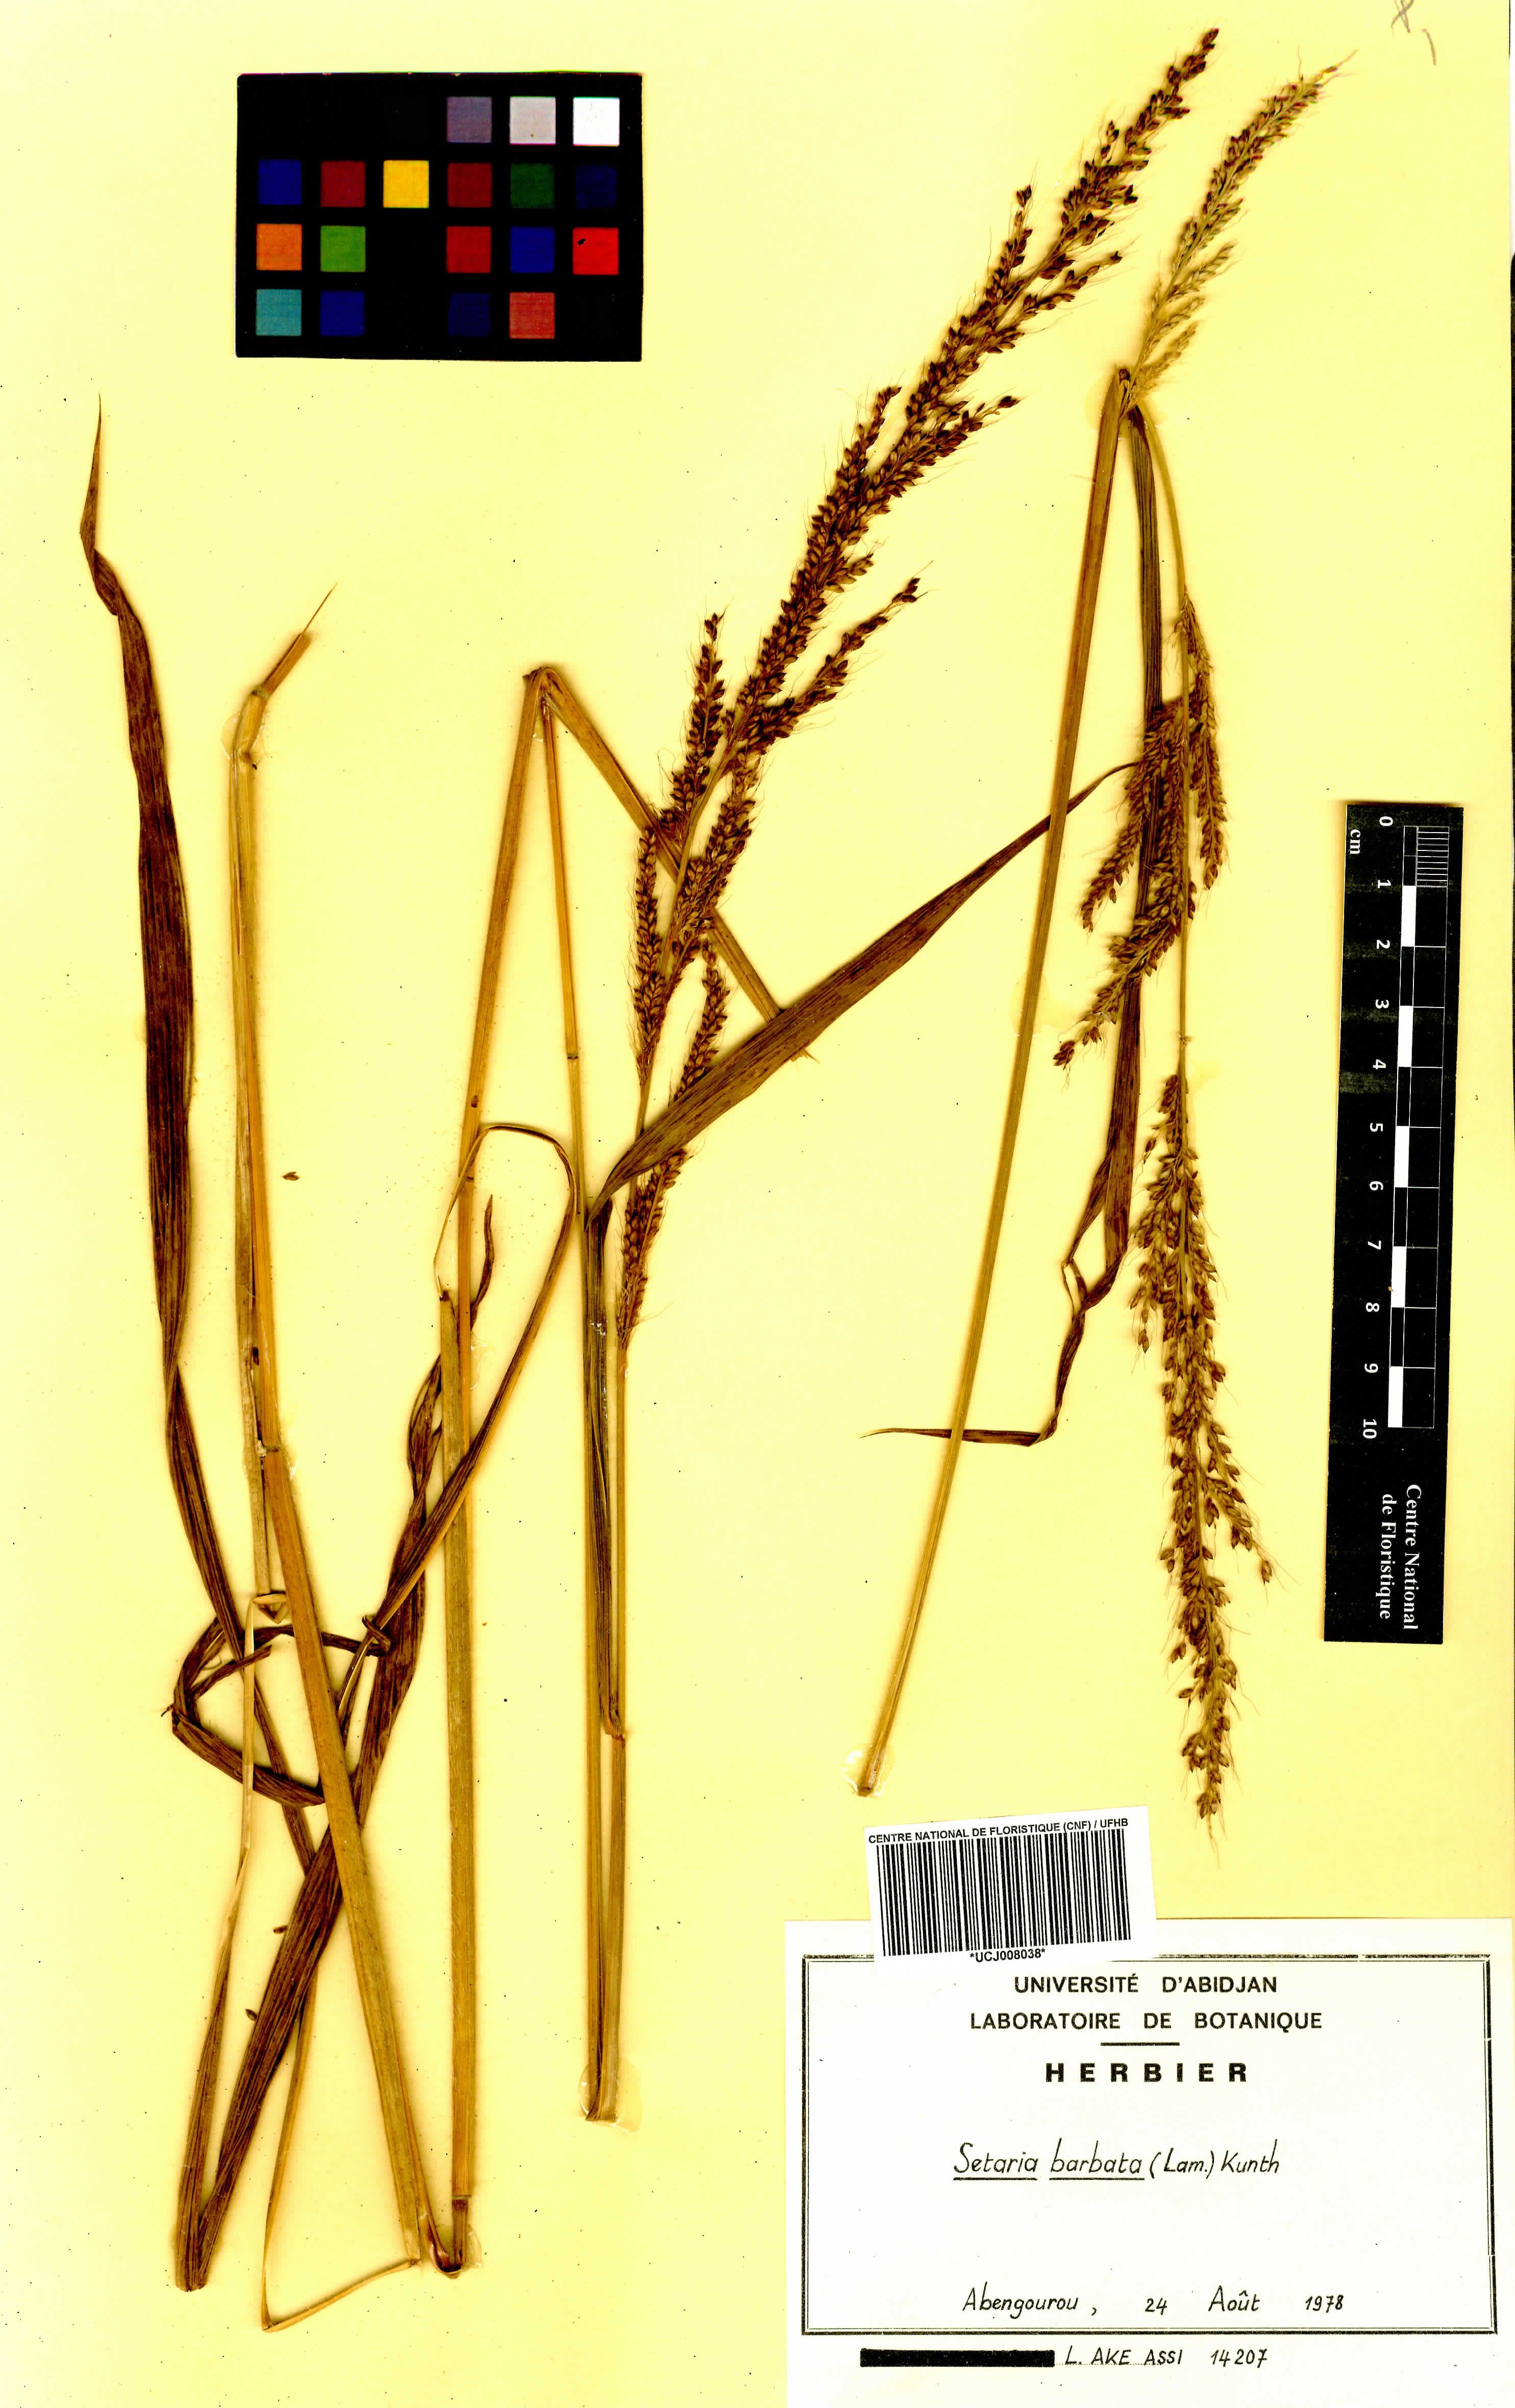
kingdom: Plantae
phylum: Tracheophyta
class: Liliopsida
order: Poales
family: Poaceae
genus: Setaria
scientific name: Setaria barbata
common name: East indian bristlegrass
